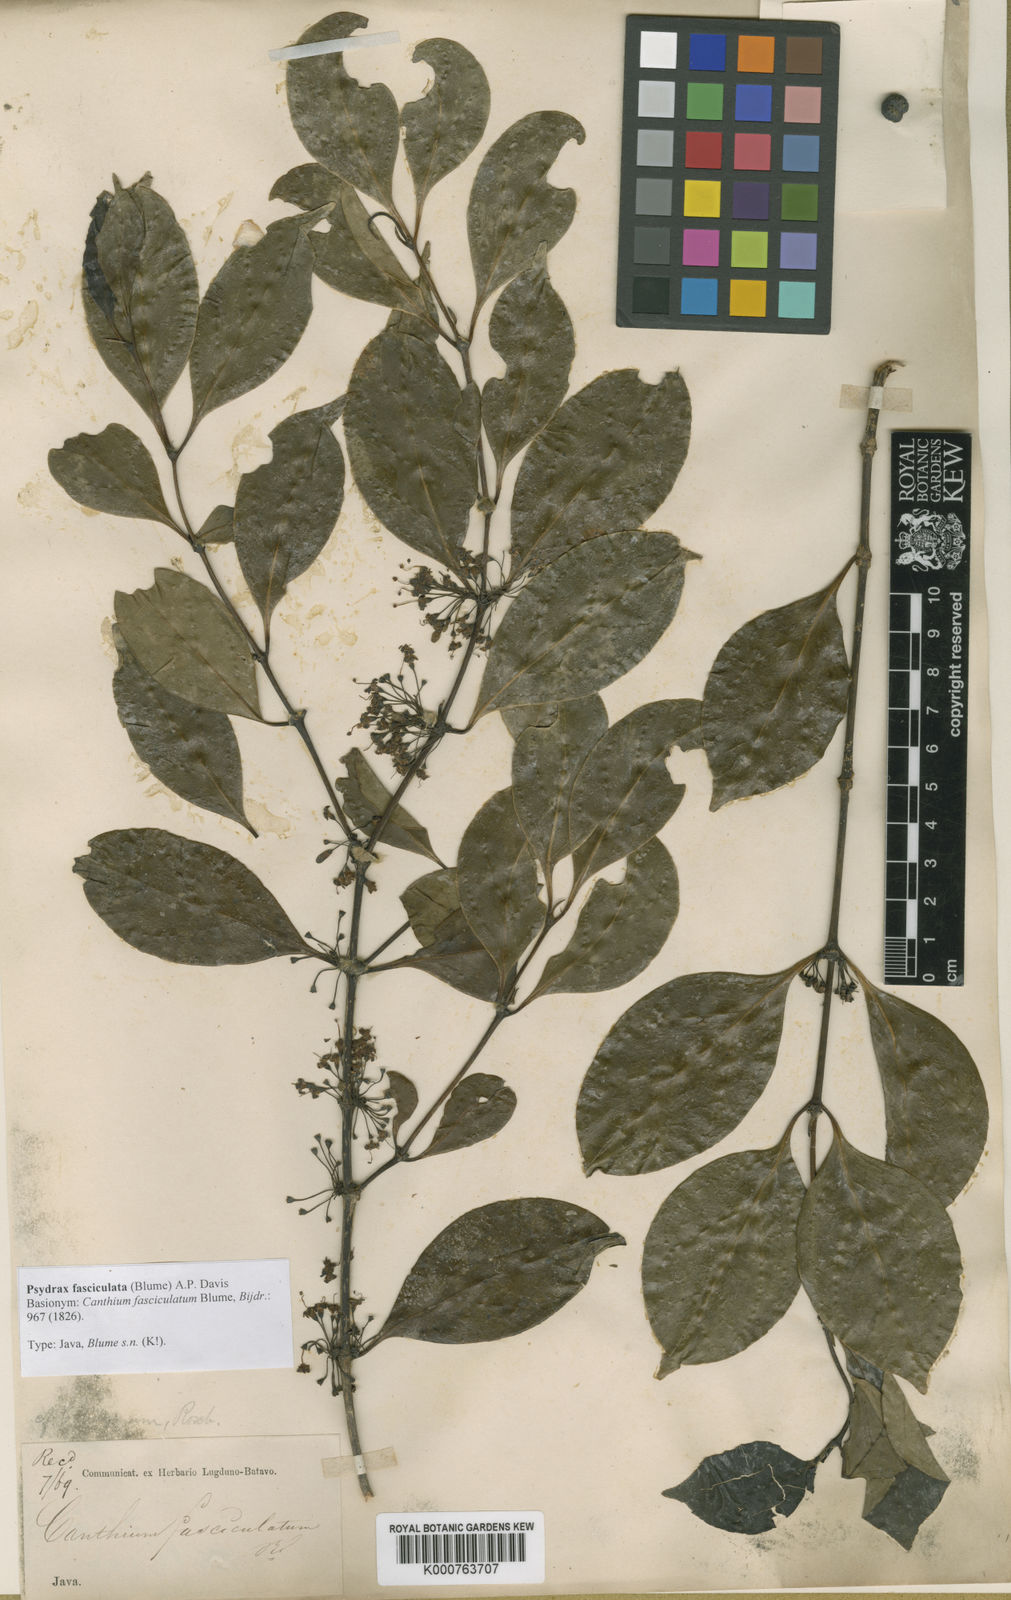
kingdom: Plantae
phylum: Tracheophyta
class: Magnoliopsida
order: Gentianales
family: Rubiaceae
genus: Psydrax
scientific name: Psydrax fasciculatus
